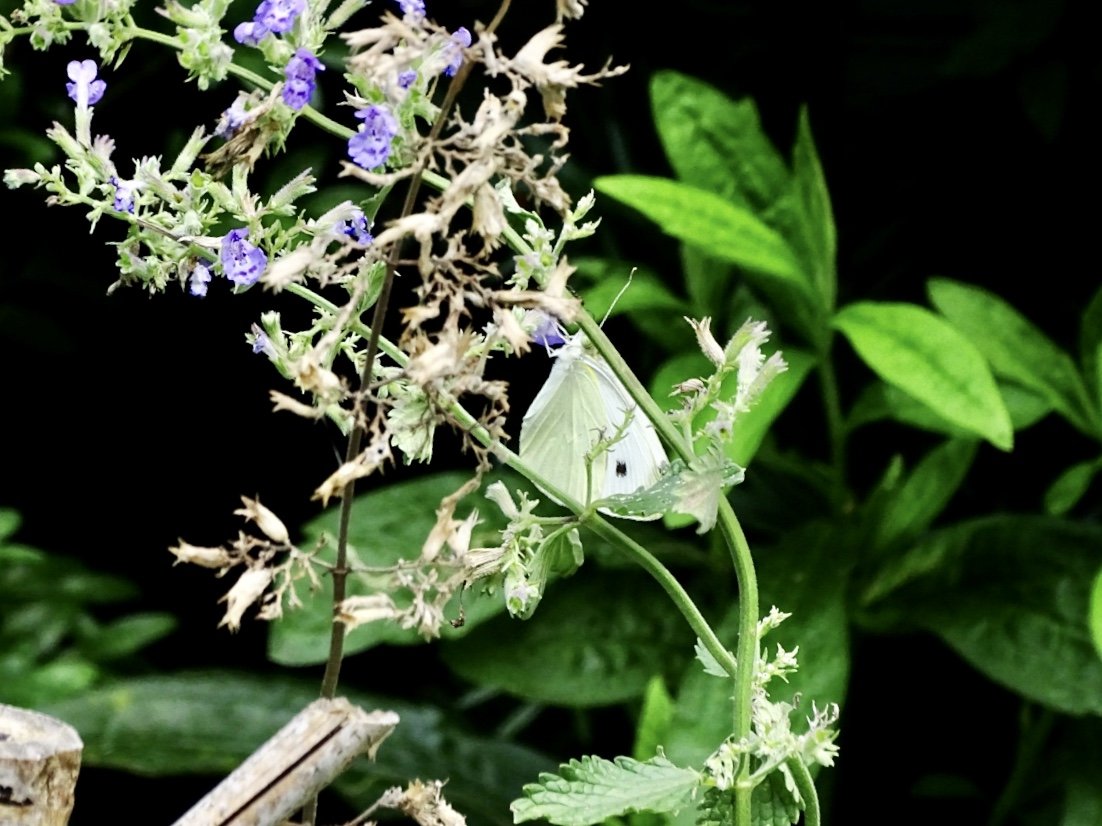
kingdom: Animalia
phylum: Arthropoda
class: Insecta
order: Lepidoptera
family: Pieridae
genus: Pieris
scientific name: Pieris rapae
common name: Cabbage White
